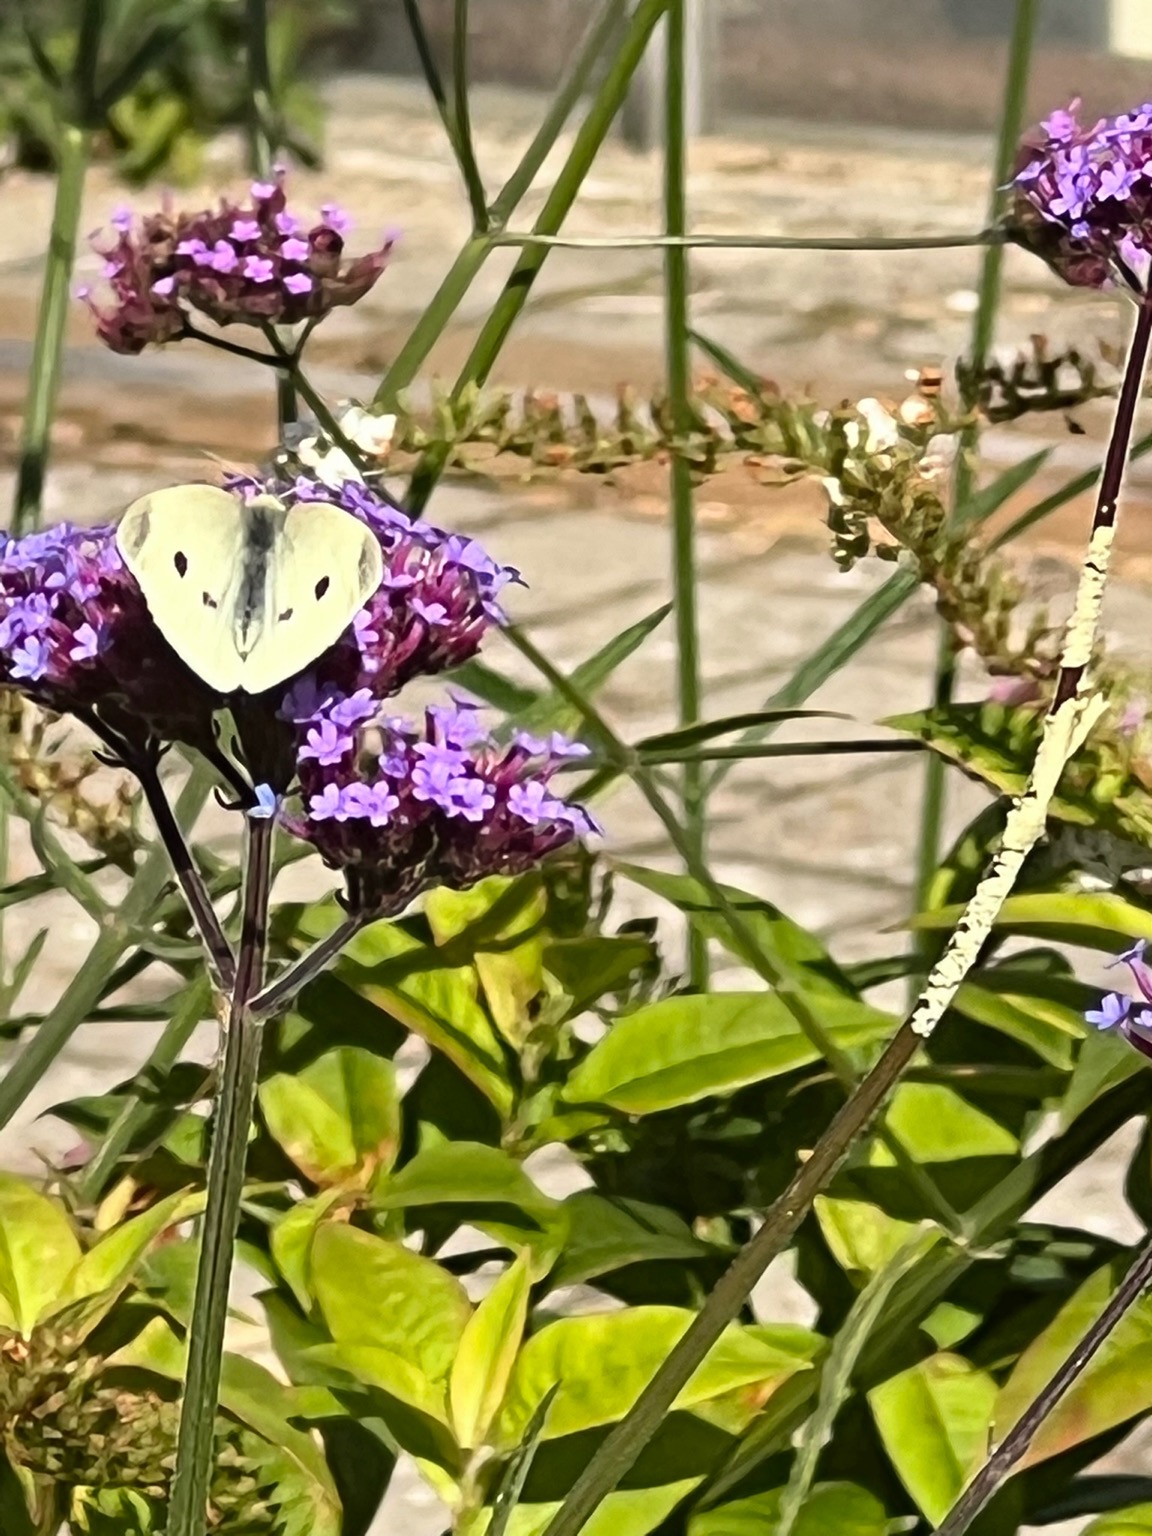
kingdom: Animalia
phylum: Arthropoda
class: Insecta
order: Lepidoptera
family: Pieridae
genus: Pieris
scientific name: Pieris rapae
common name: Lille kålsommerfugl
